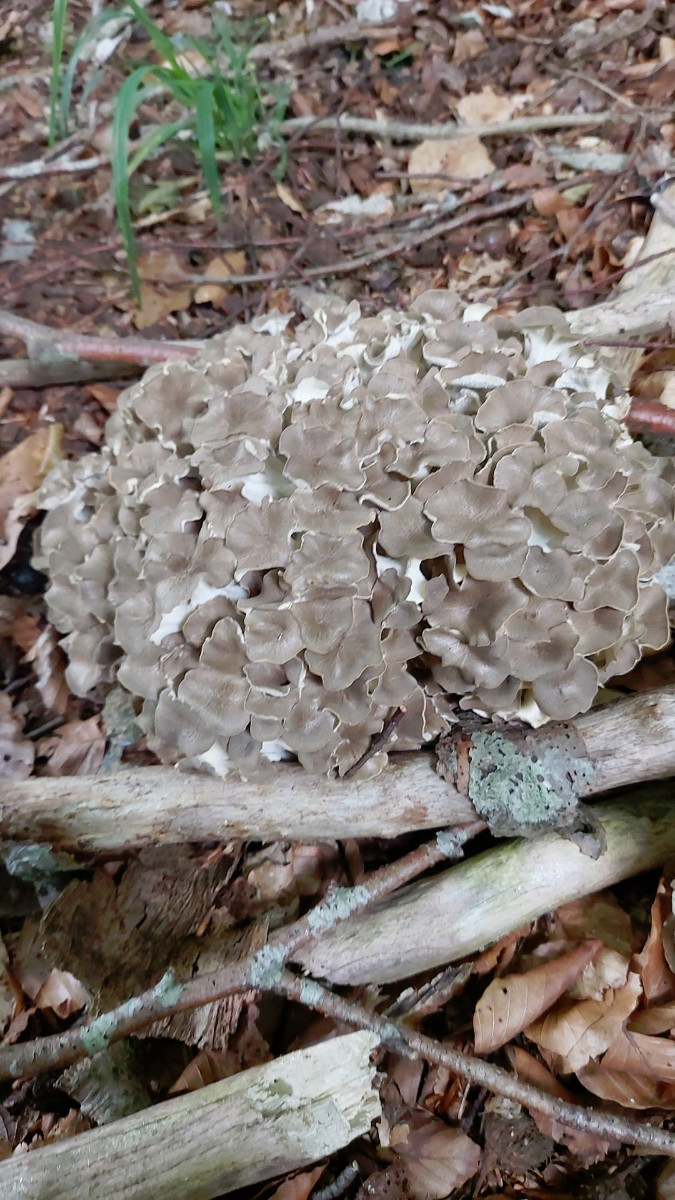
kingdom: Fungi
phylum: Basidiomycota
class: Agaricomycetes
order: Polyporales
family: Polyporaceae
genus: Polyporus
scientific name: Polyporus umbellatus
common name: skærmformet stilkporesvamp
